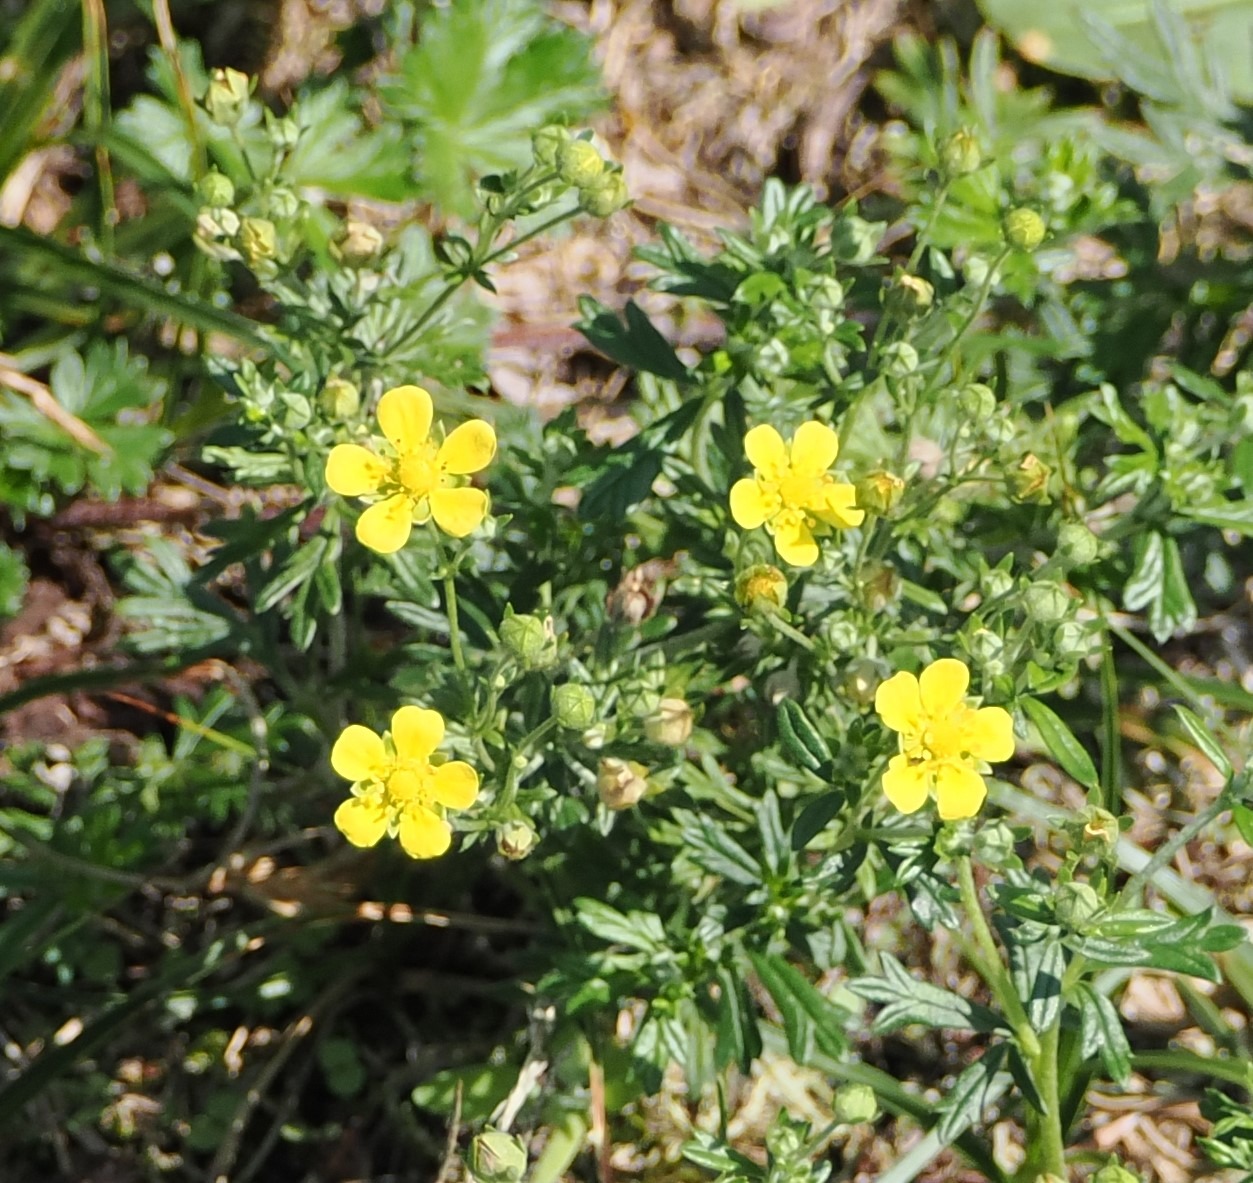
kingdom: Plantae
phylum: Tracheophyta
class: Magnoliopsida
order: Rosales
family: Rosaceae
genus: Potentilla
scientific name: Potentilla argentea
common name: Sølv-potentil
